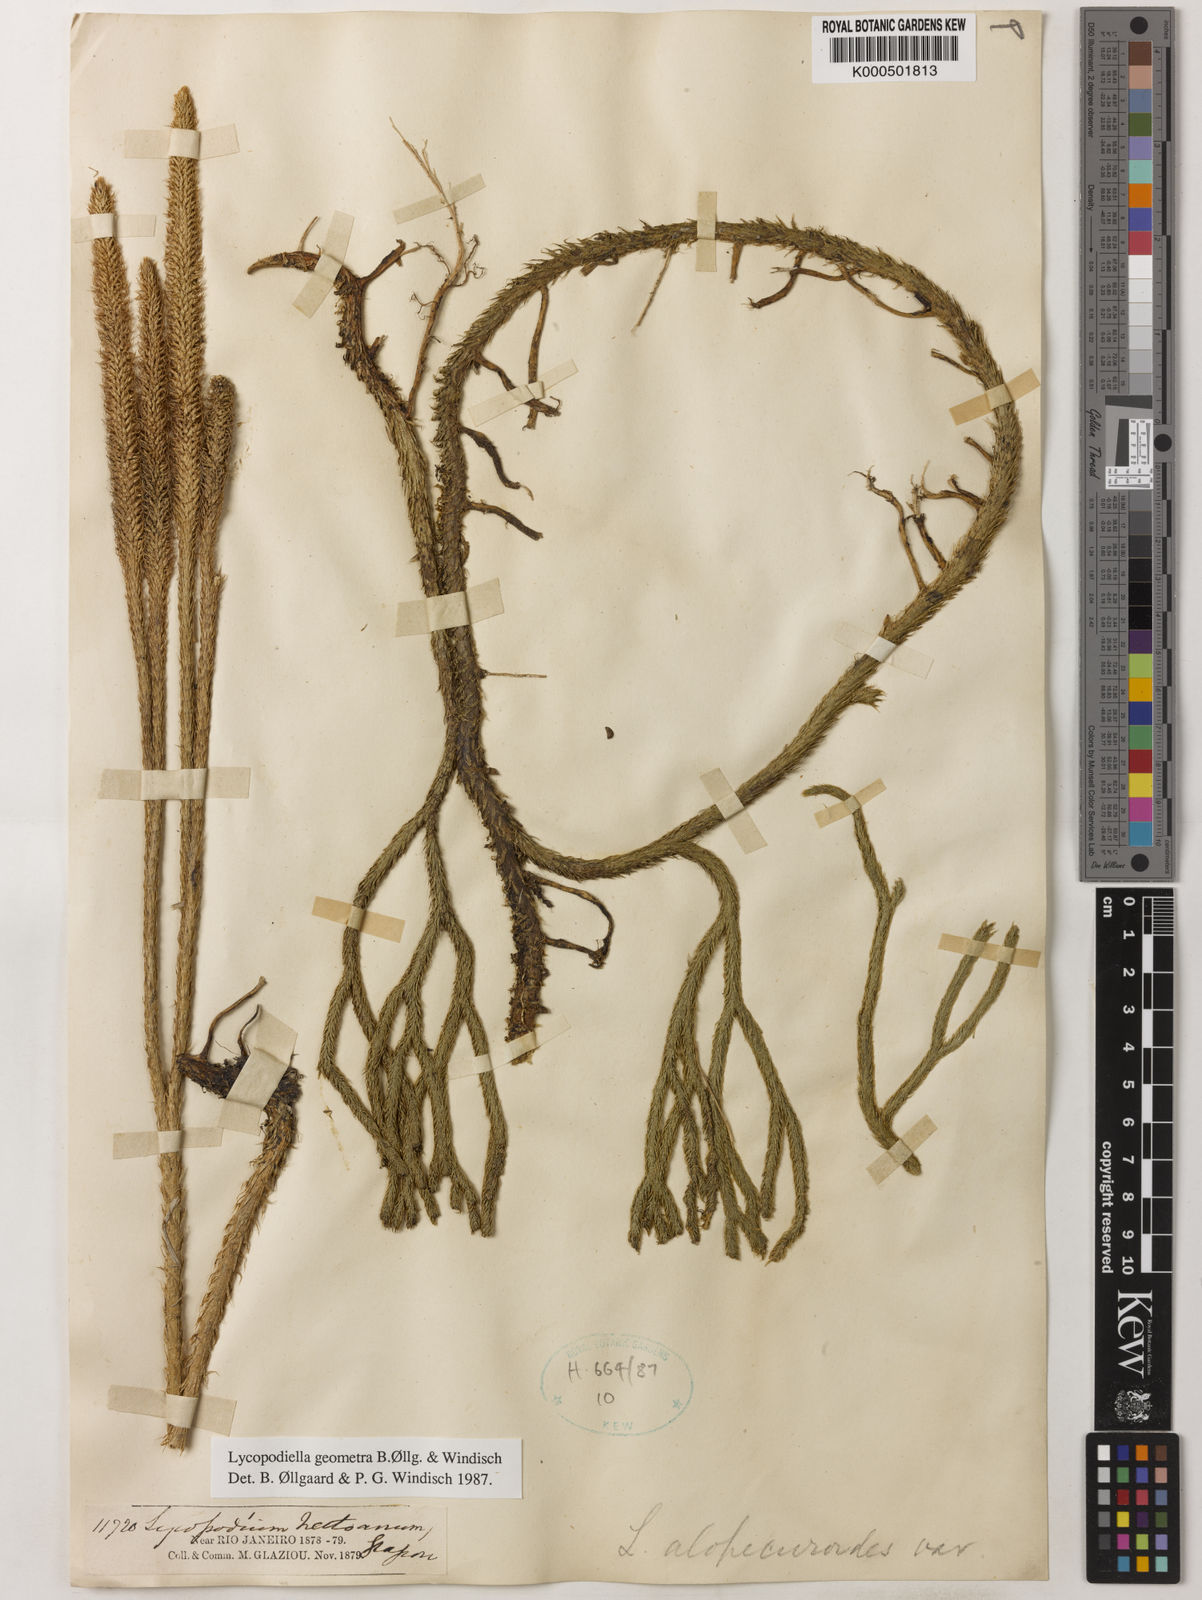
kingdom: Plantae
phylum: Tracheophyta
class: Lycopodiopsida
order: Lycopodiales
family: Lycopodiaceae
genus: Lycopodiella
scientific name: Lycopodiella
